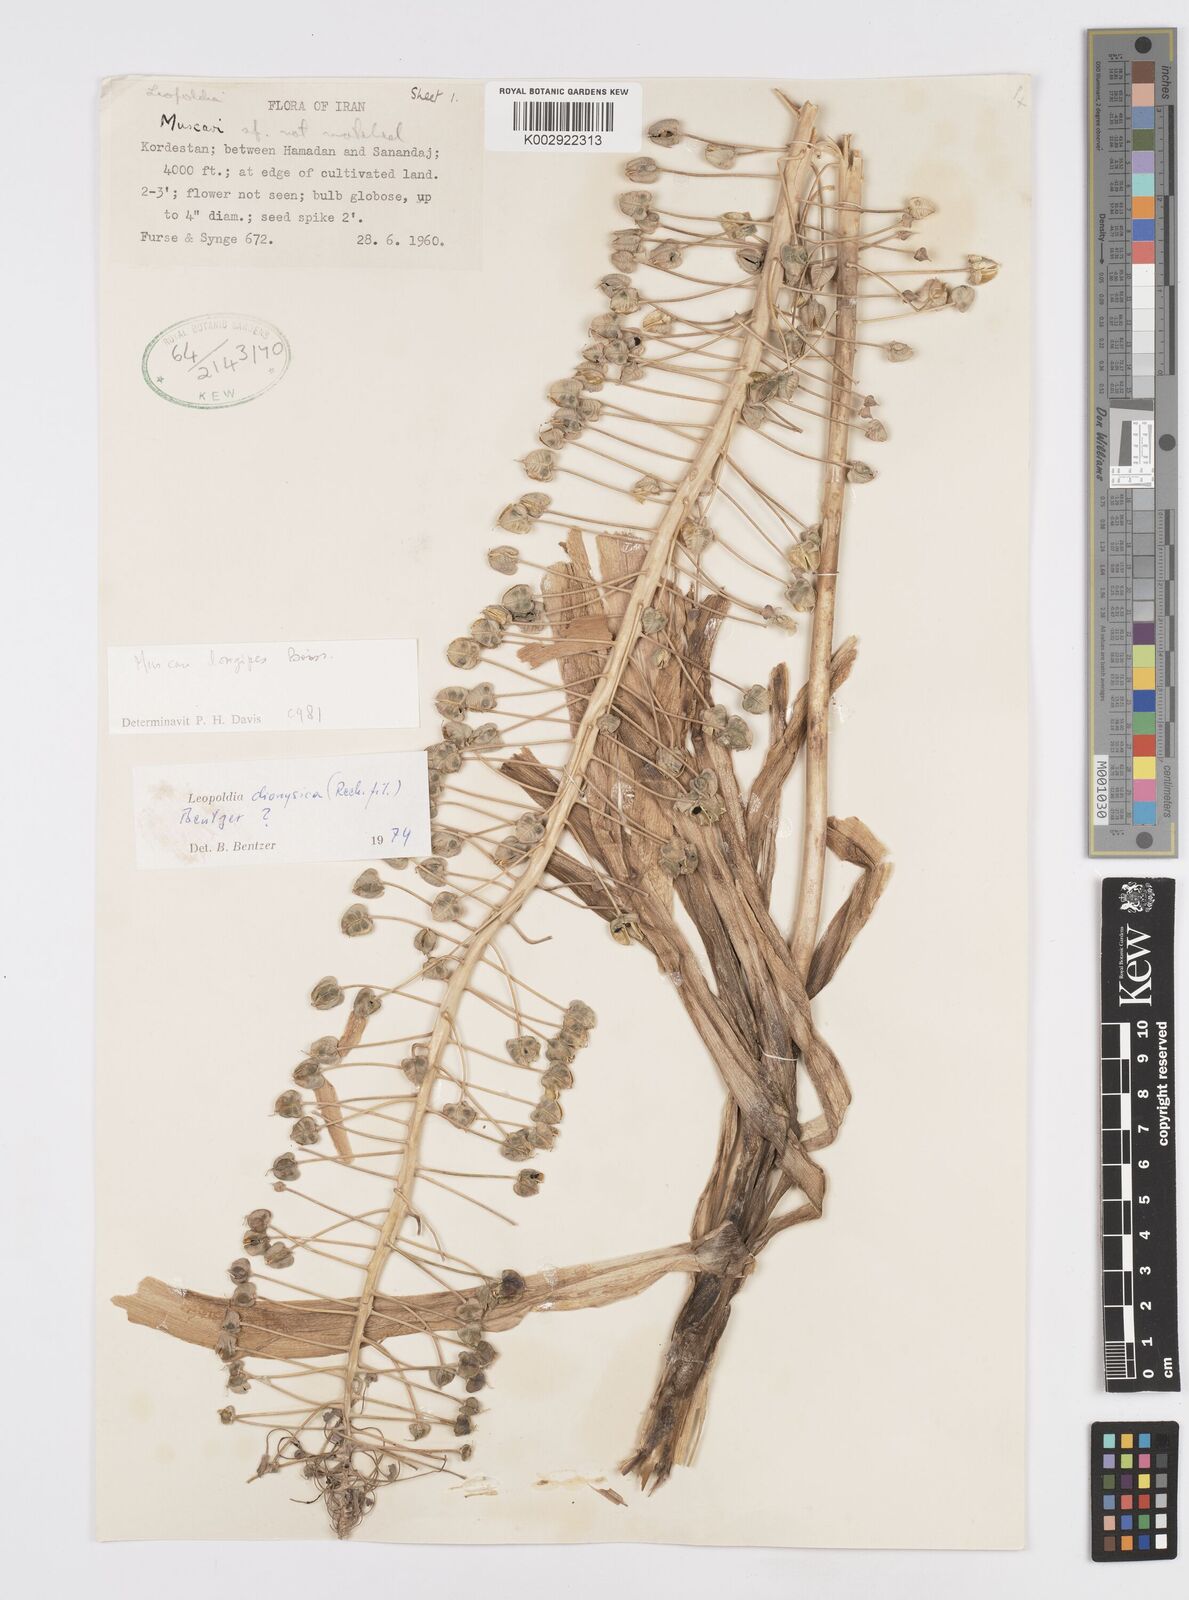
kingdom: Plantae
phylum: Tracheophyta
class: Liliopsida
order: Asparagales
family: Asparagaceae
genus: Muscari
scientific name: Muscari weissii
